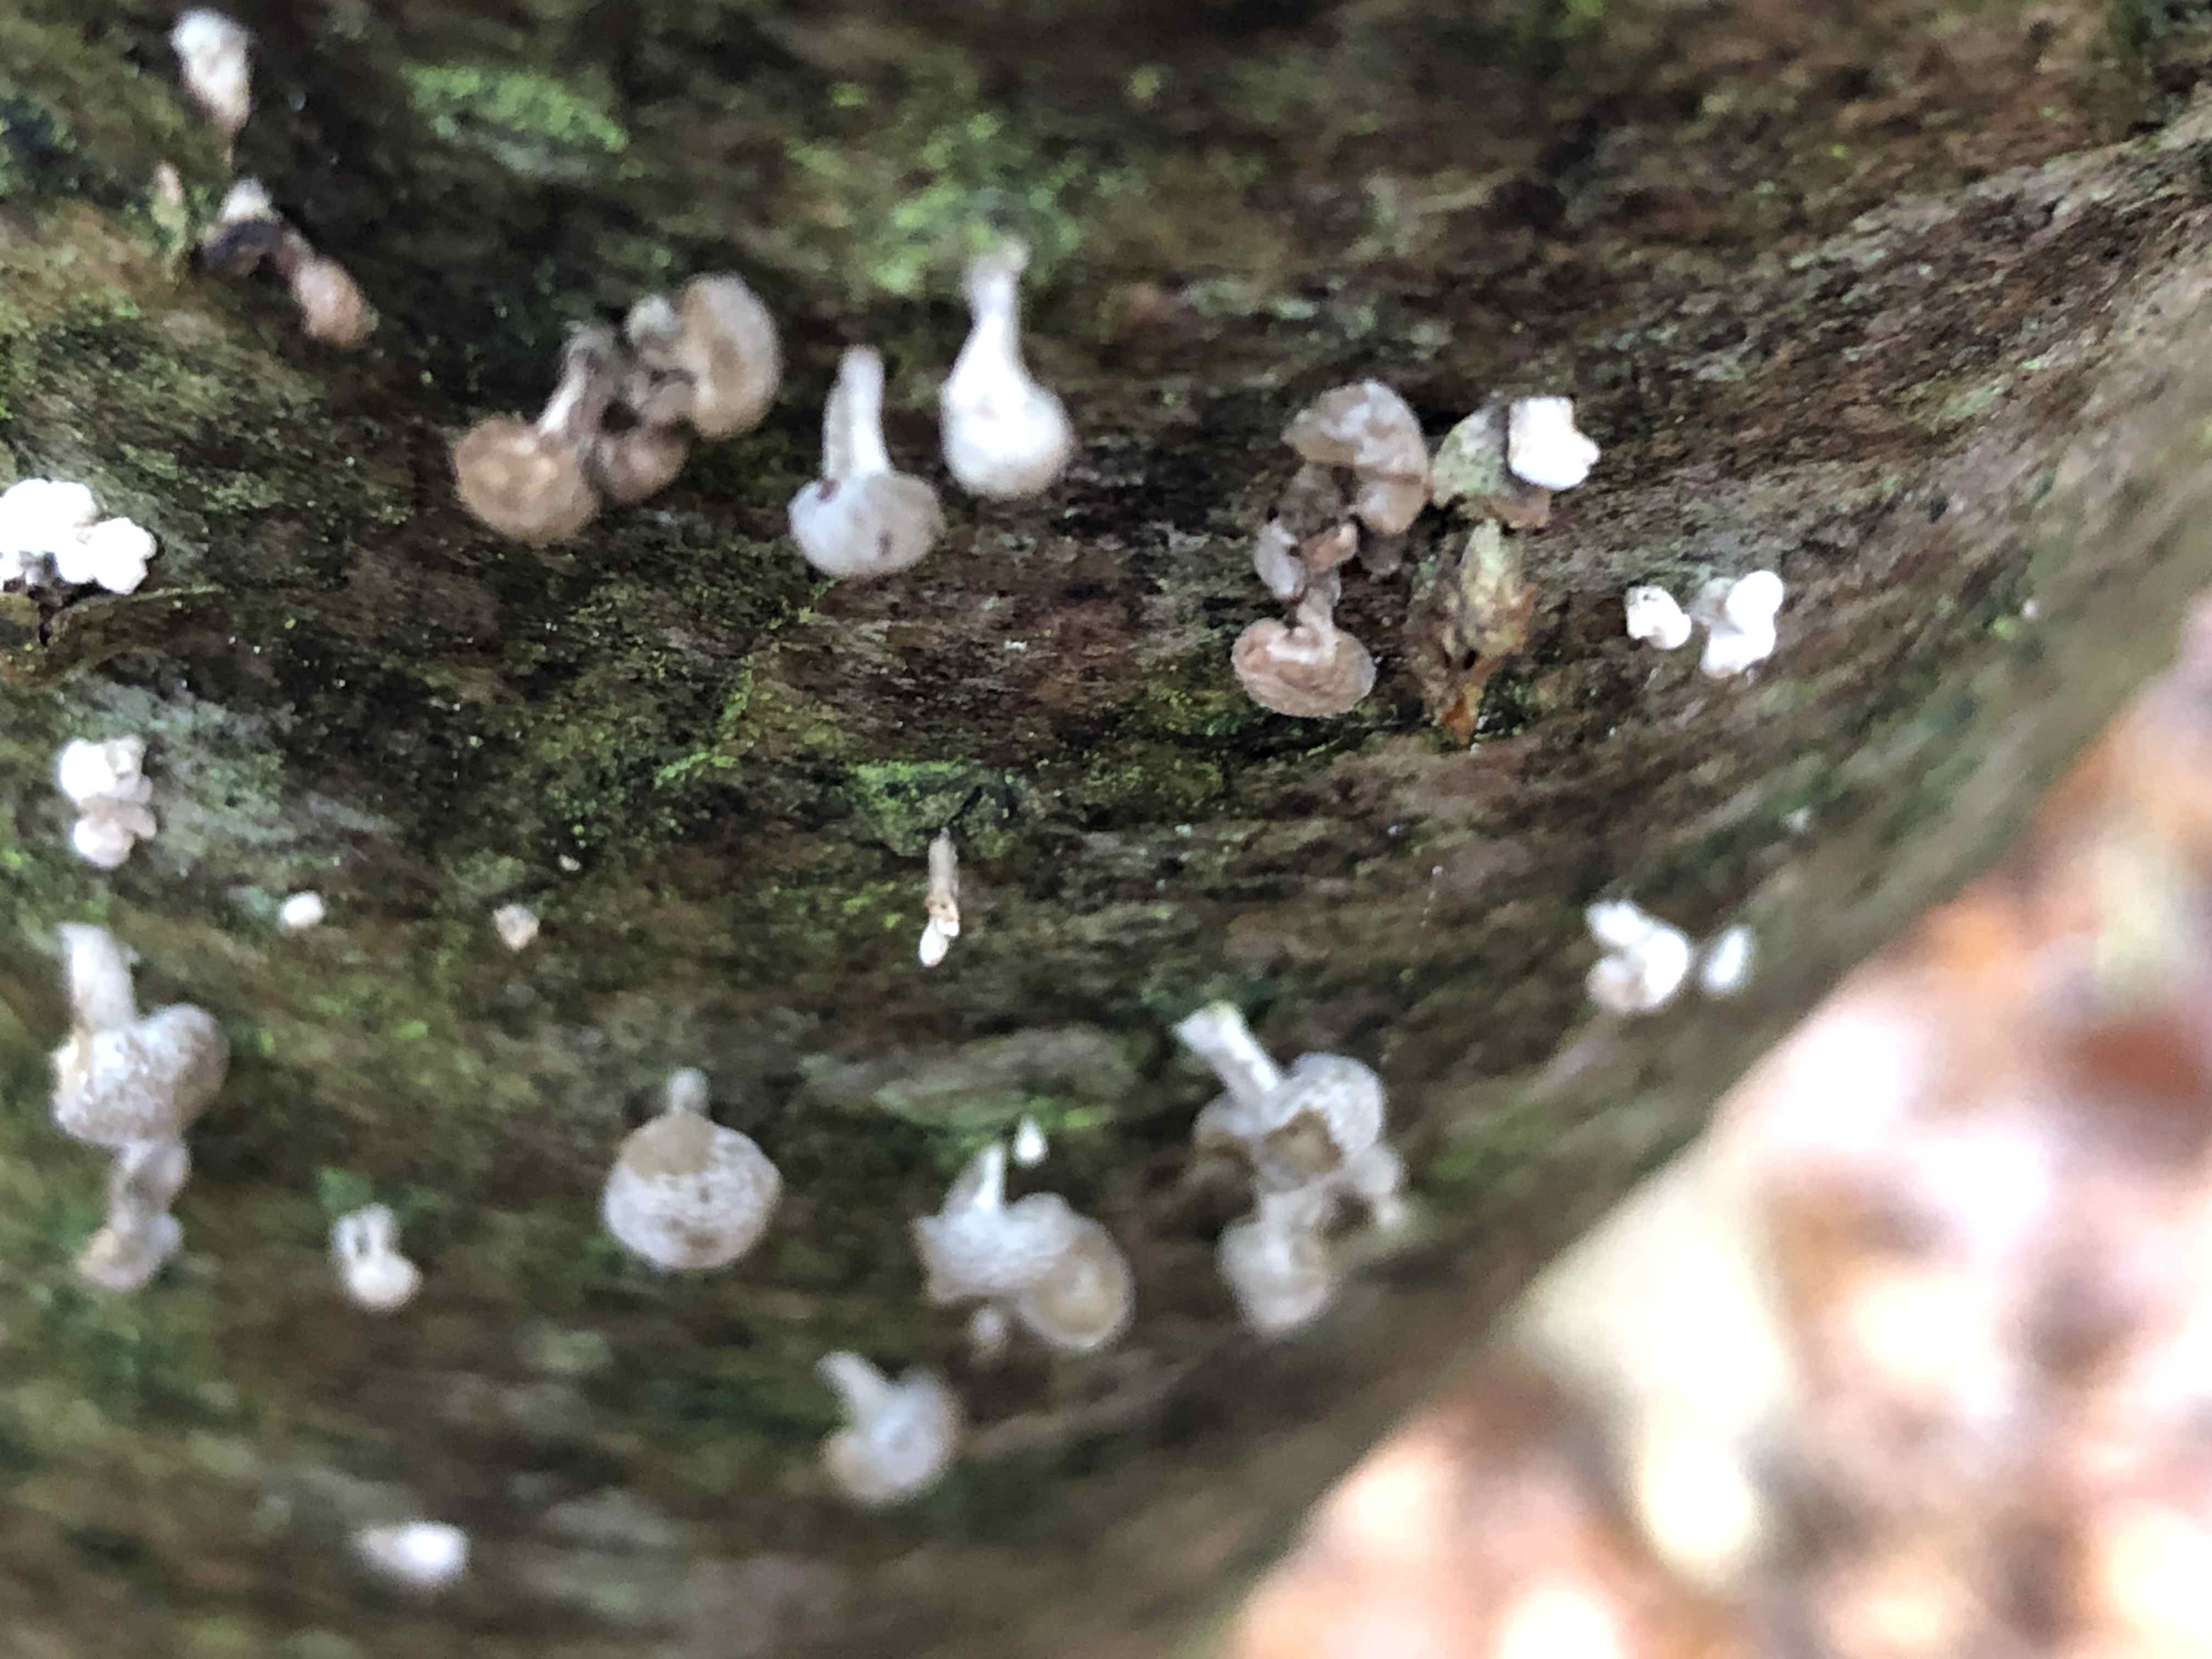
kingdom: Fungi
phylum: Basidiomycota
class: Atractiellomycetes
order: Atractiellales
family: Phleogenaceae
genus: Phleogena
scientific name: Phleogena faginea
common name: pudderkølle
